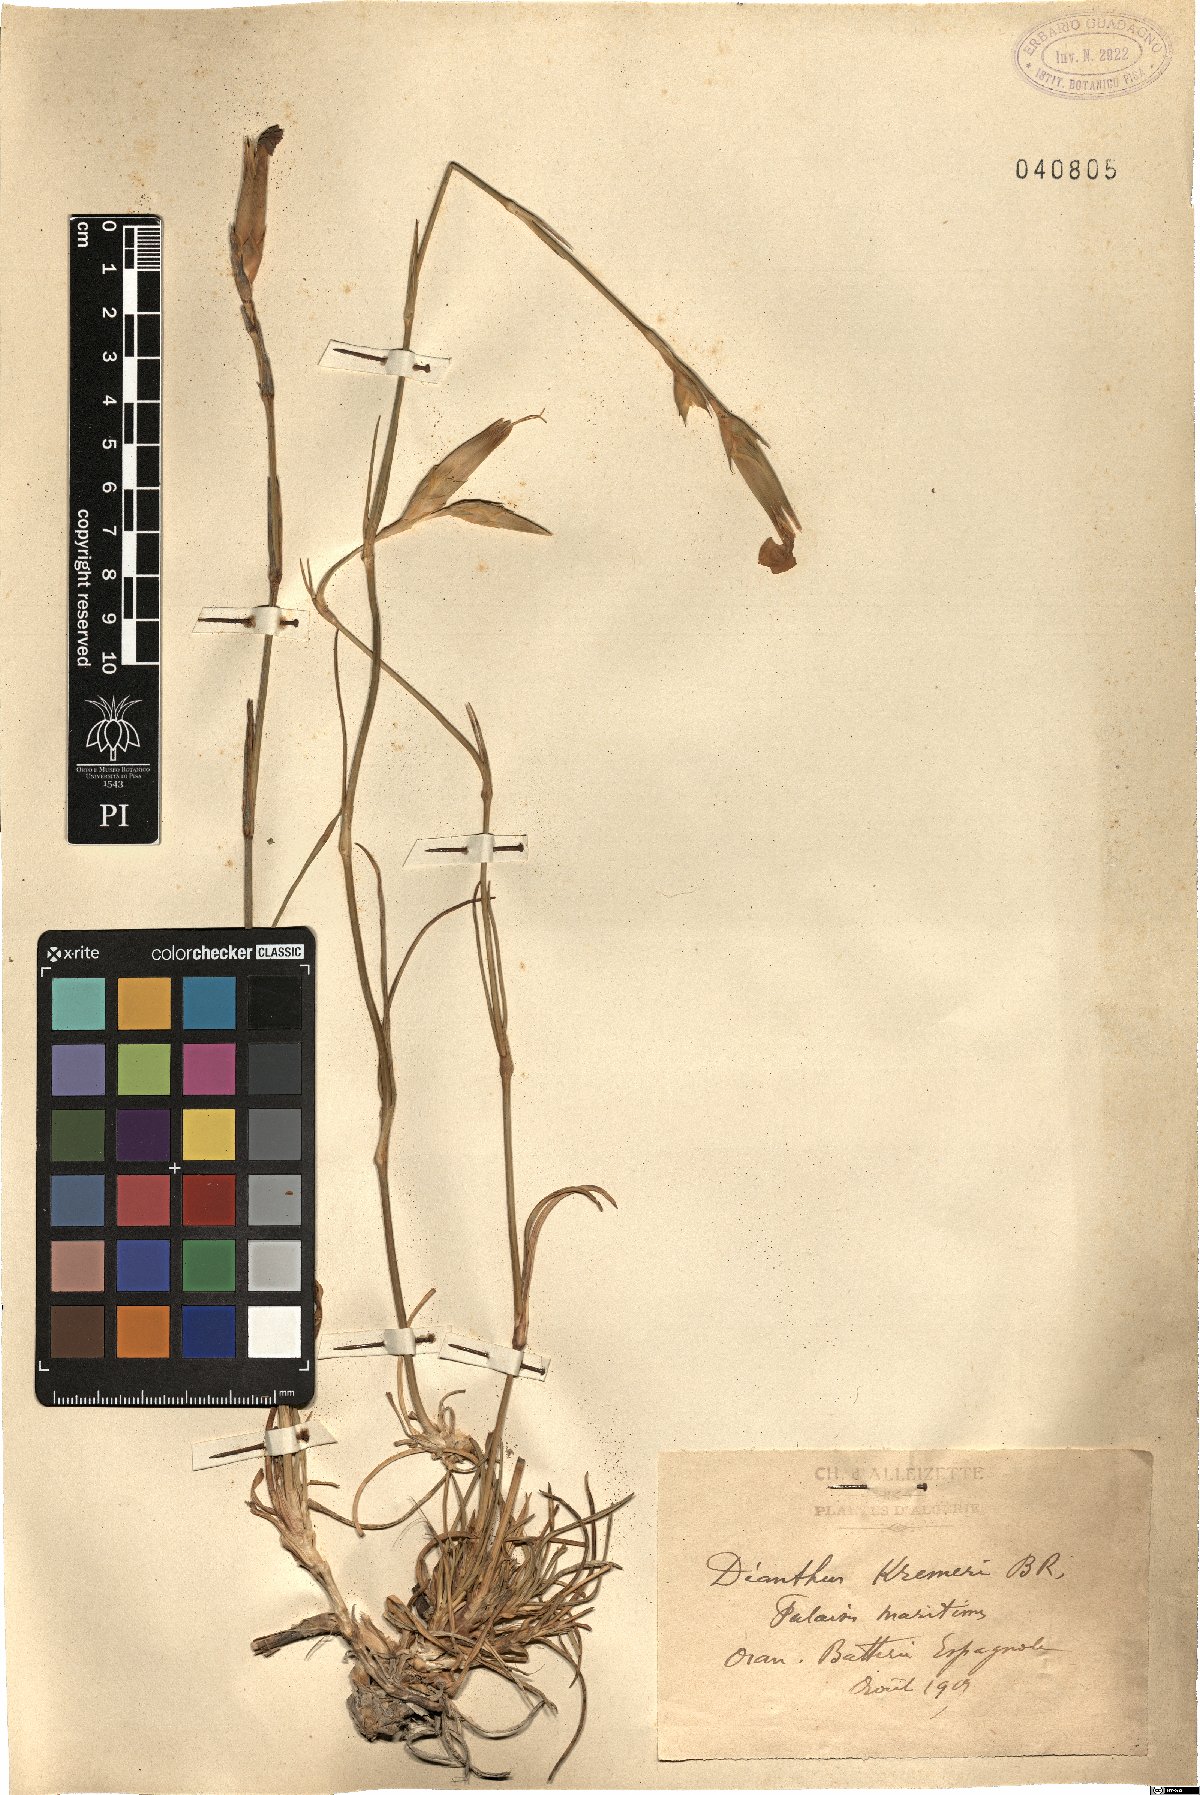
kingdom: Plantae
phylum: Tracheophyta
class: Magnoliopsida
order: Caryophyllales
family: Caryophyllaceae
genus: Dianthus
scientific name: Dianthus siculus
